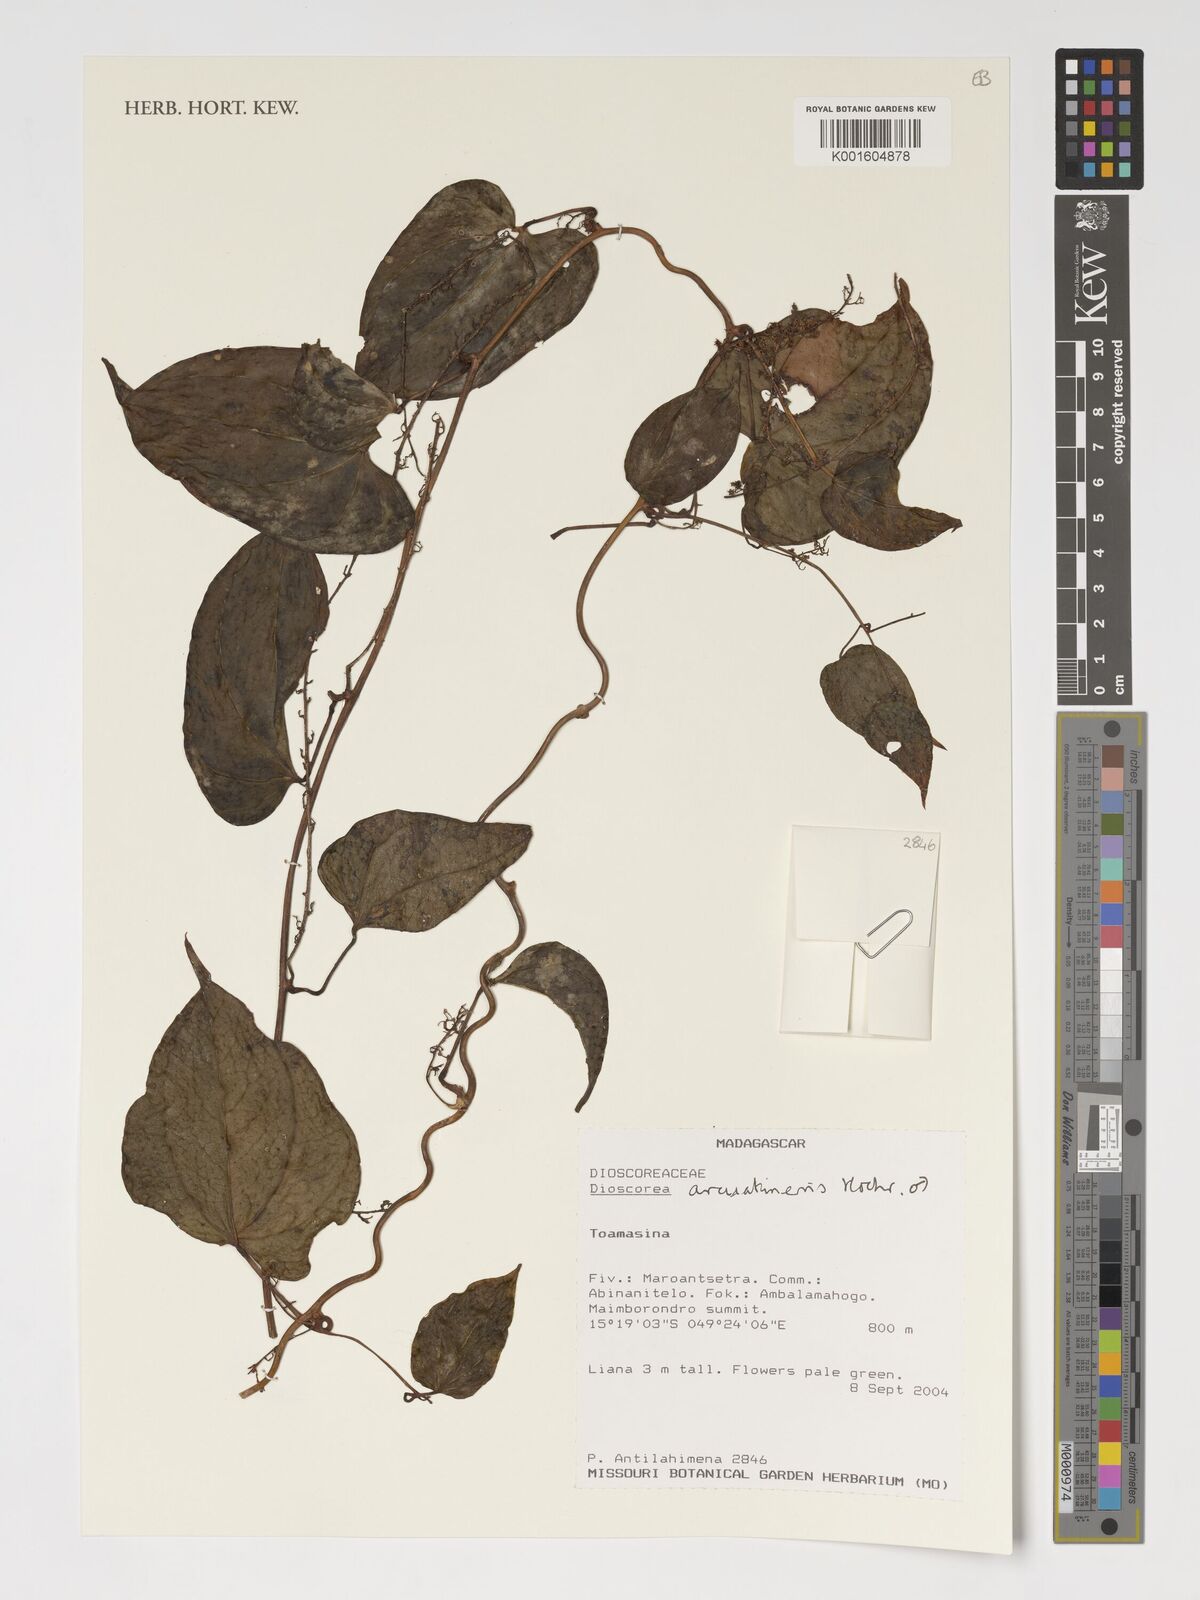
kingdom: Plantae
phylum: Tracheophyta
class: Liliopsida
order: Dioscoreales
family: Dioscoreaceae
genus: Dioscorea
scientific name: Dioscorea arcuatinervis
